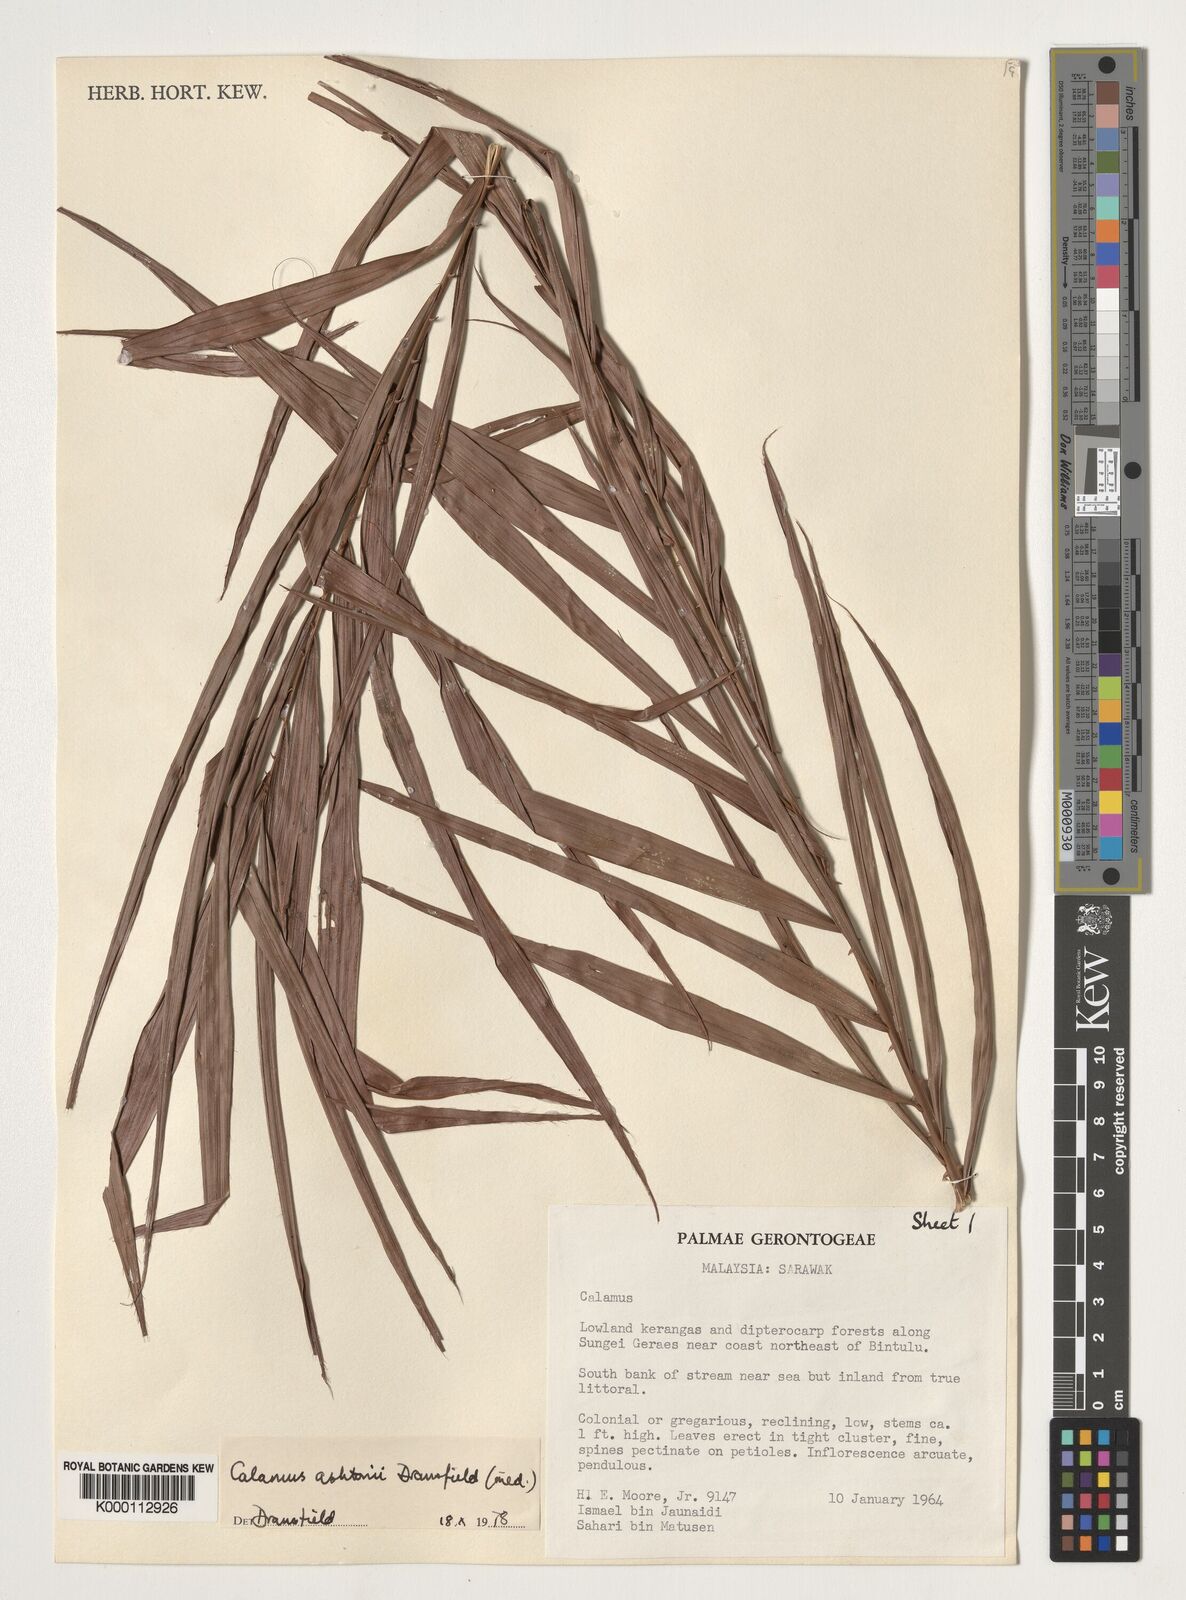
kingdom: Plantae
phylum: Tracheophyta
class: Liliopsida
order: Arecales
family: Arecaceae
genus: Calamus
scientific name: Calamus ashtonii
